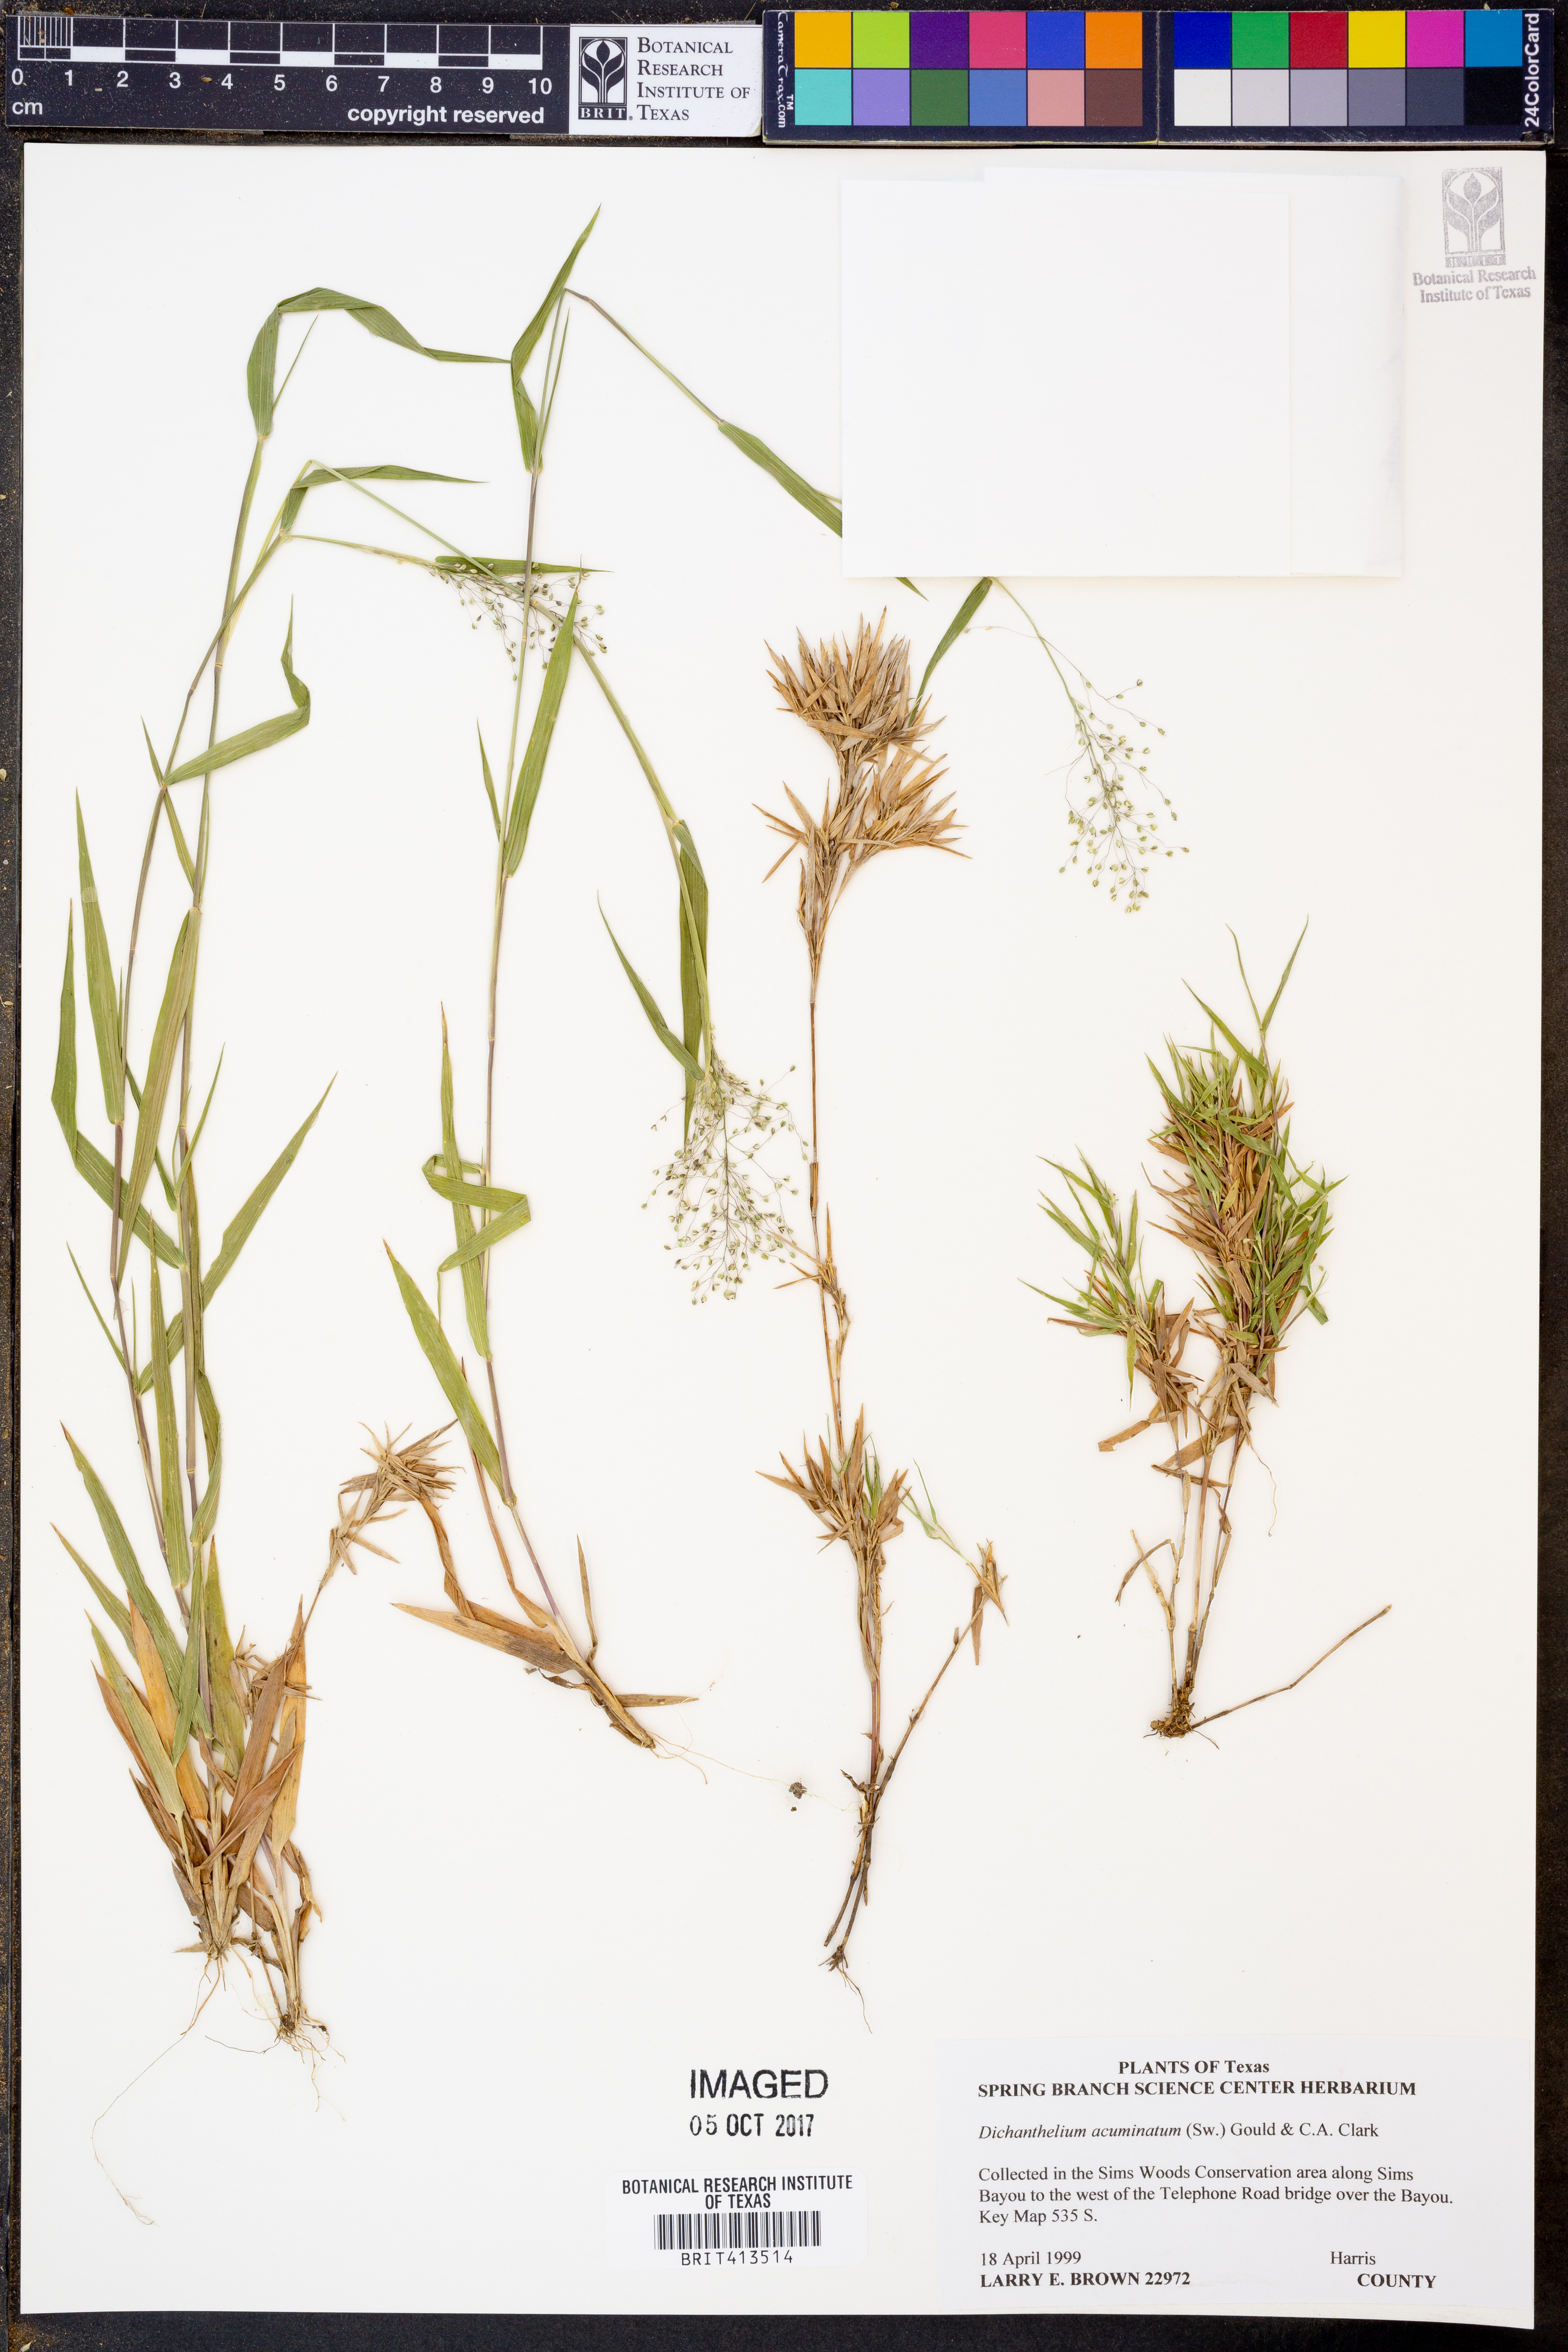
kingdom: Plantae
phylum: Tracheophyta
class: Liliopsida
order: Poales
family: Poaceae
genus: Dichanthelium
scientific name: Dichanthelium acuminatum
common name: Hairy panic grass
